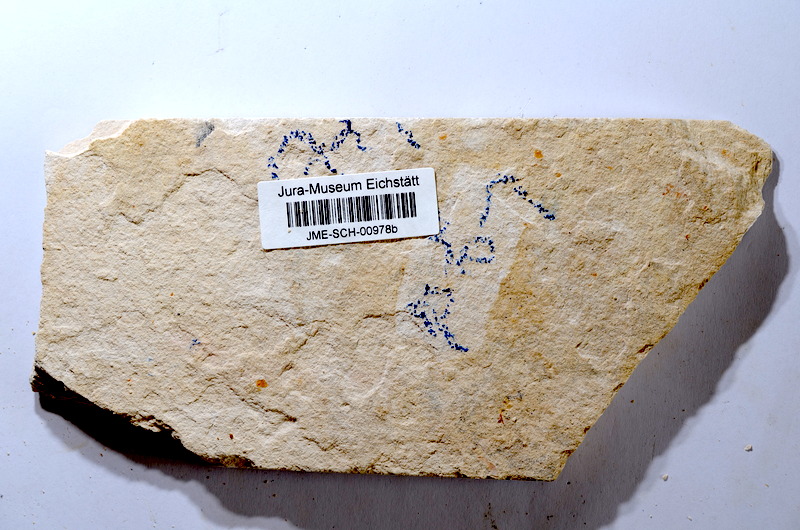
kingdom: Animalia
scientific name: Animalia
